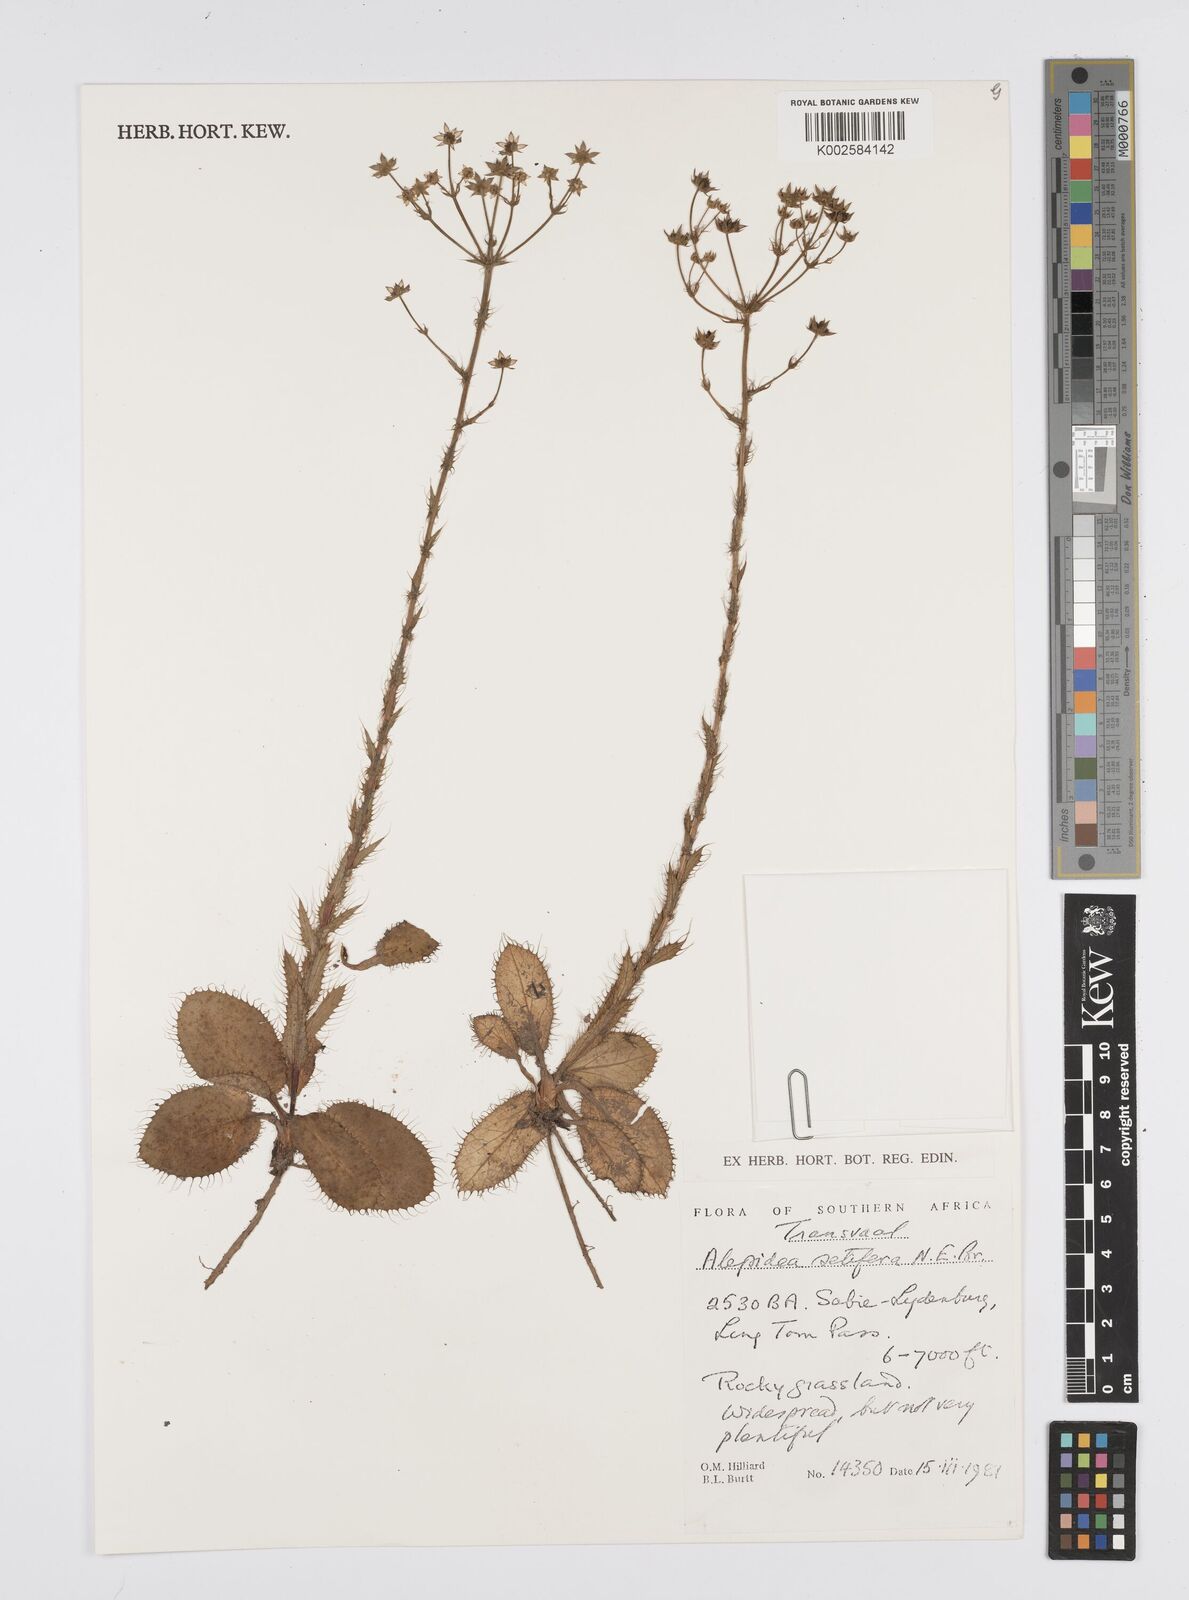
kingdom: Plantae
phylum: Tracheophyta
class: Magnoliopsida
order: Apiales
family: Apiaceae
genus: Alepidea
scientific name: Alepidea setifera
